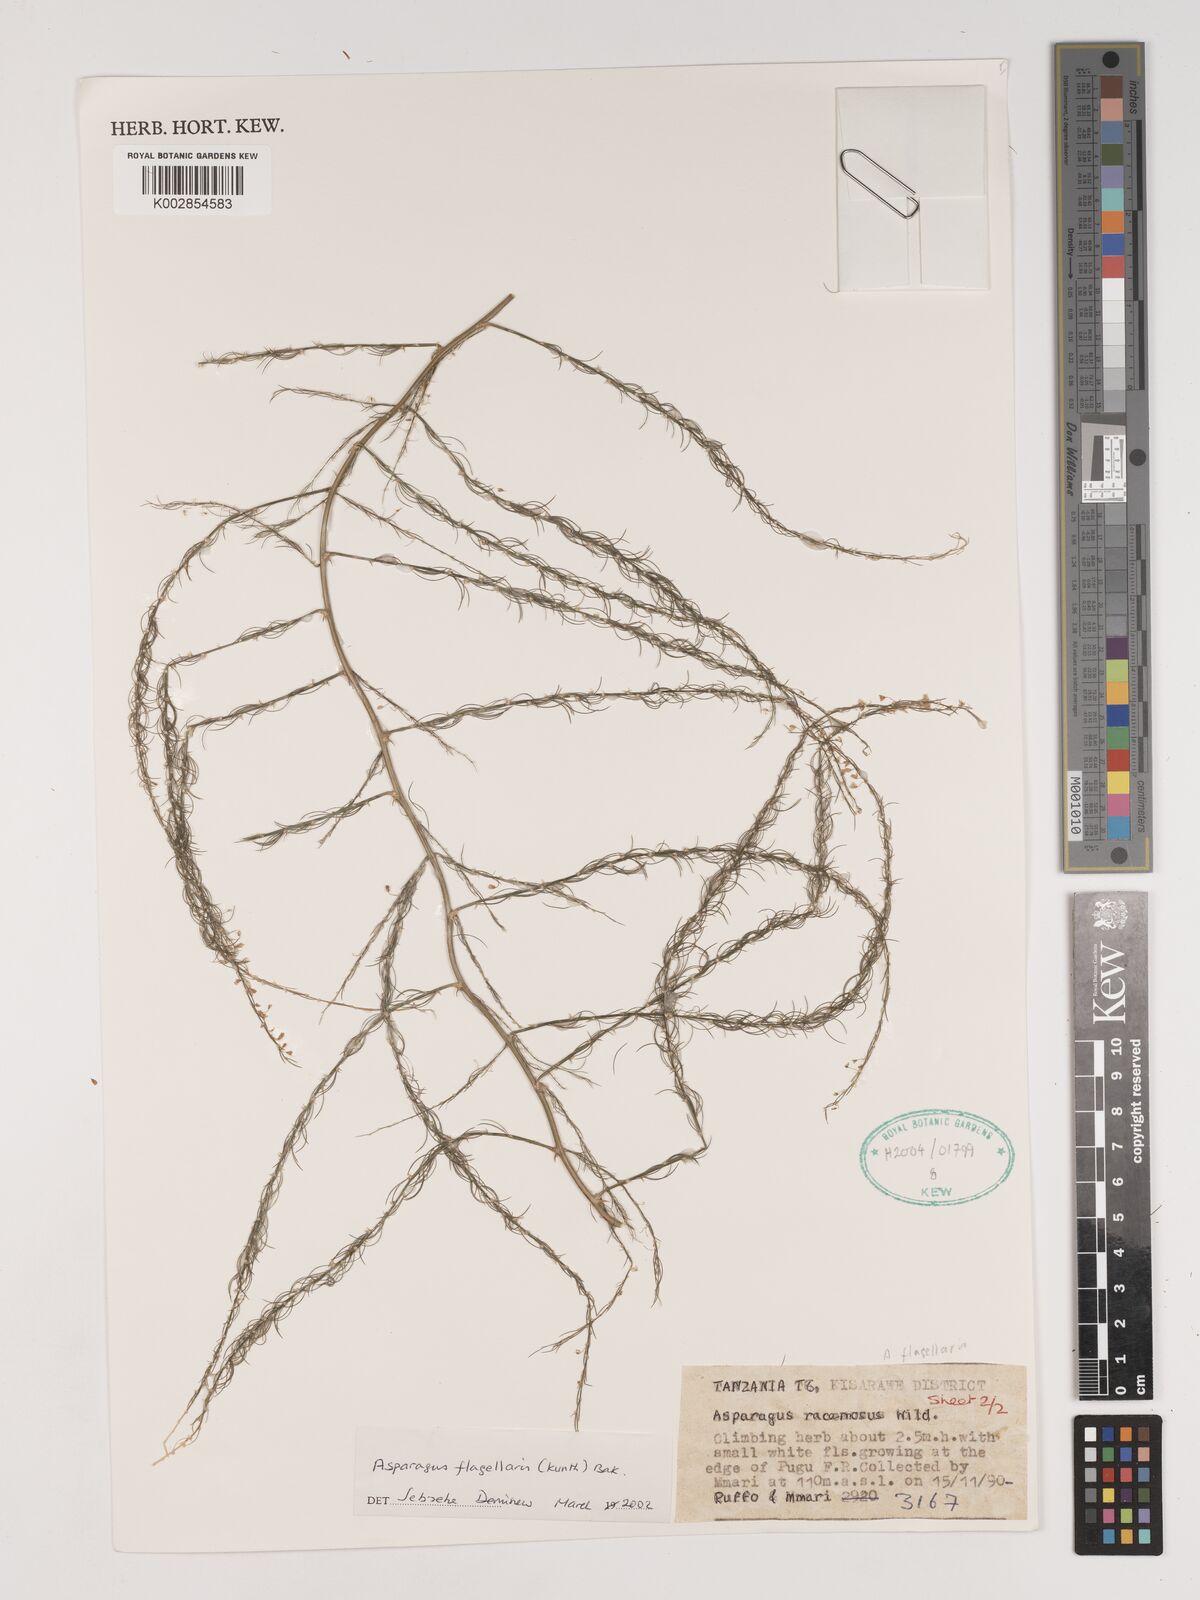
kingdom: Plantae
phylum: Tracheophyta
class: Liliopsida
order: Asparagales
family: Asparagaceae
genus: Asparagus
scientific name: Asparagus flagellaris
